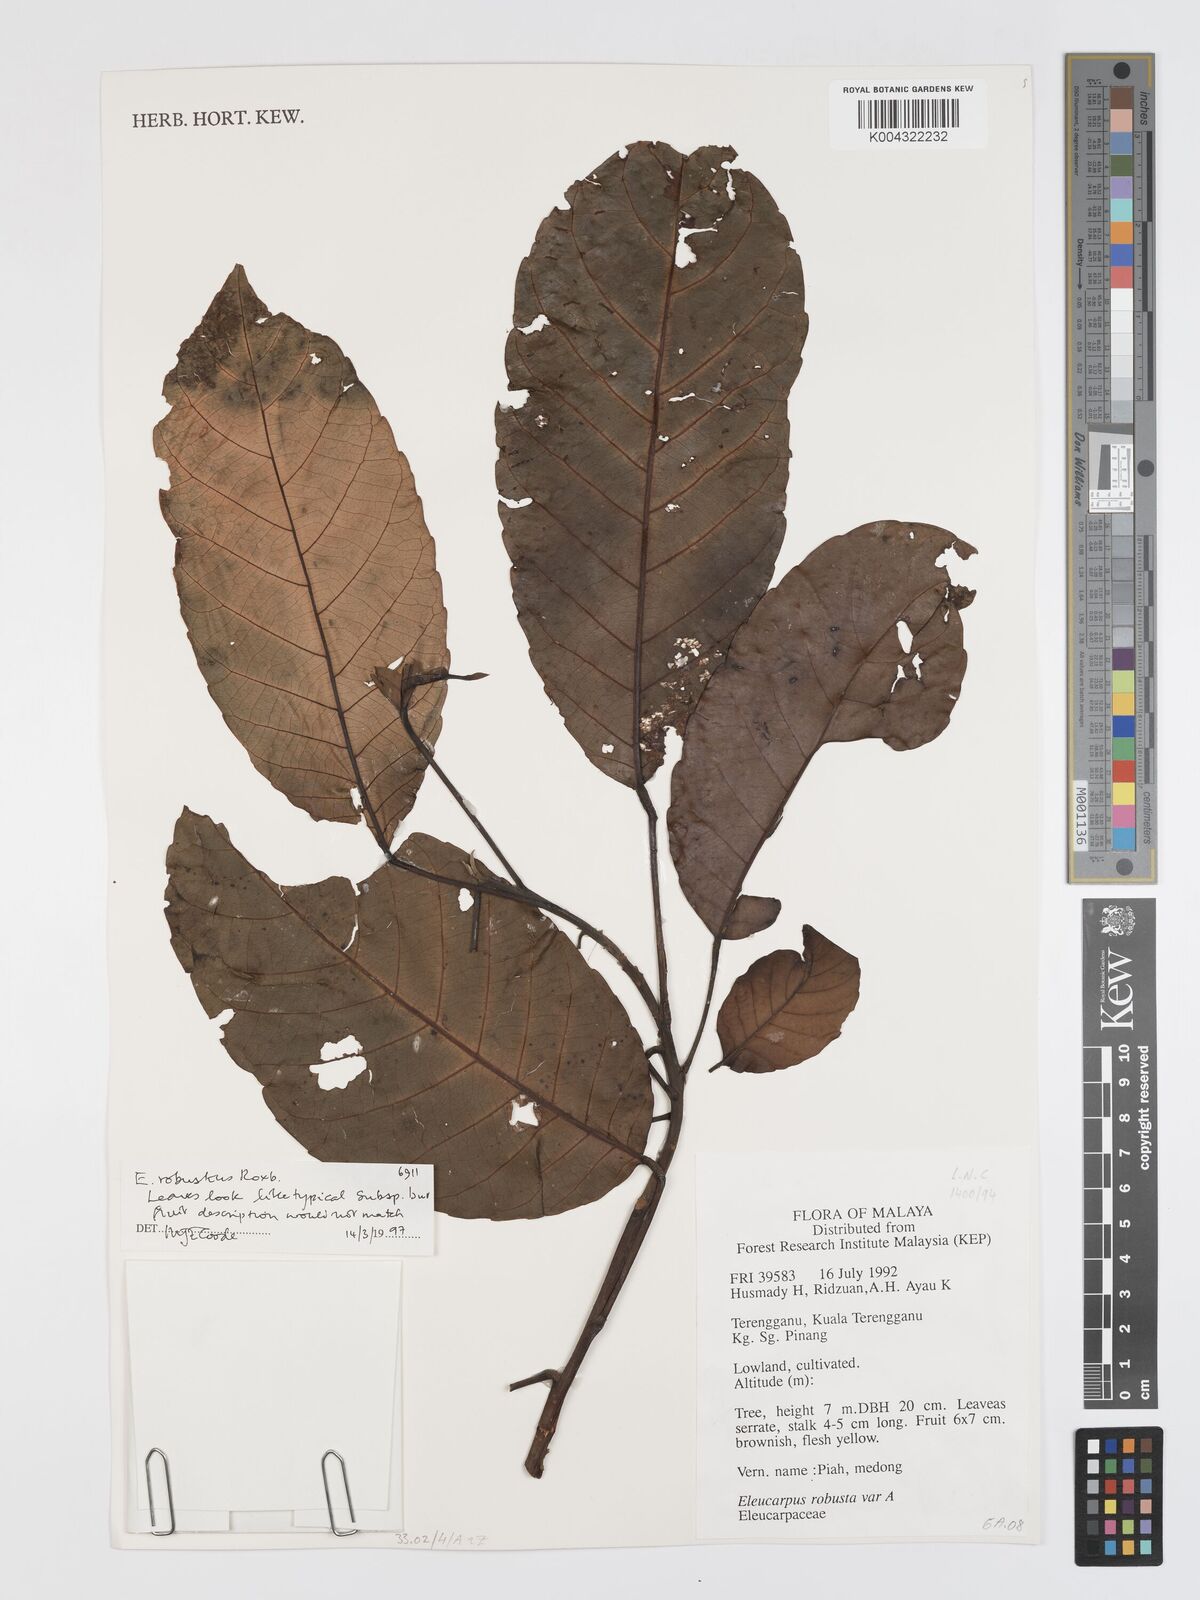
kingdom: Plantae
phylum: Tracheophyta
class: Magnoliopsida
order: Oxalidales
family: Elaeocarpaceae
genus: Elaeocarpus
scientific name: Elaeocarpus robustus
